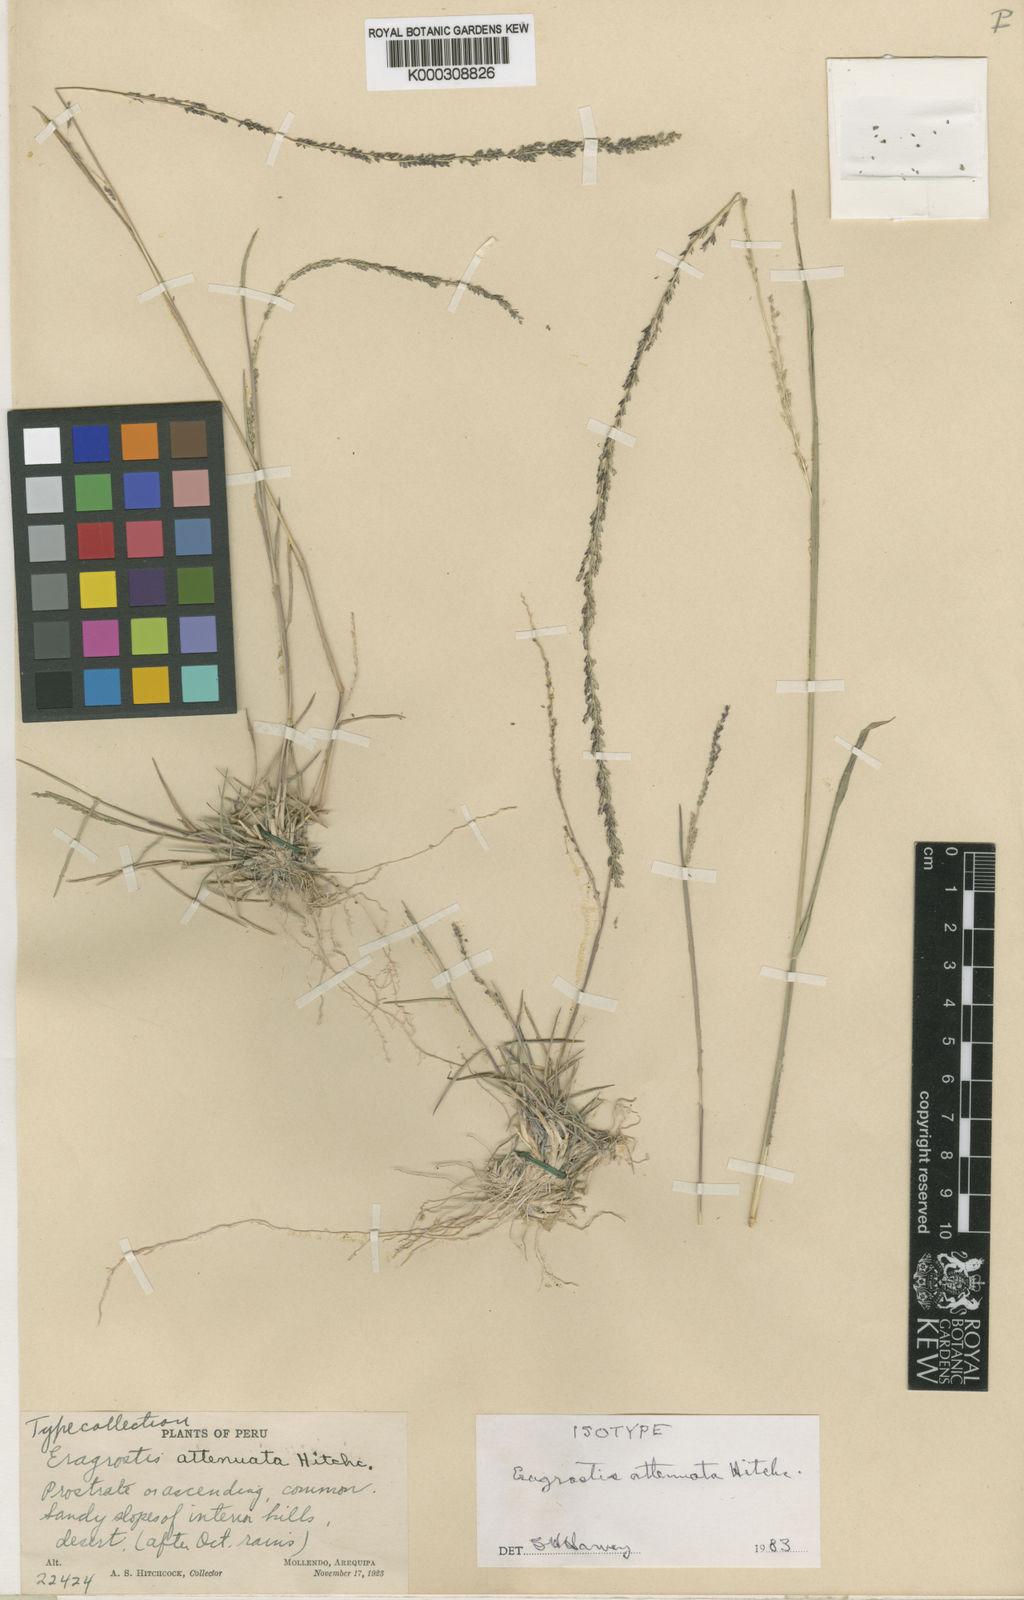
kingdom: Plantae
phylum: Tracheophyta
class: Liliopsida
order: Poales
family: Poaceae
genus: Eragrostis
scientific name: Eragrostis attenuata
